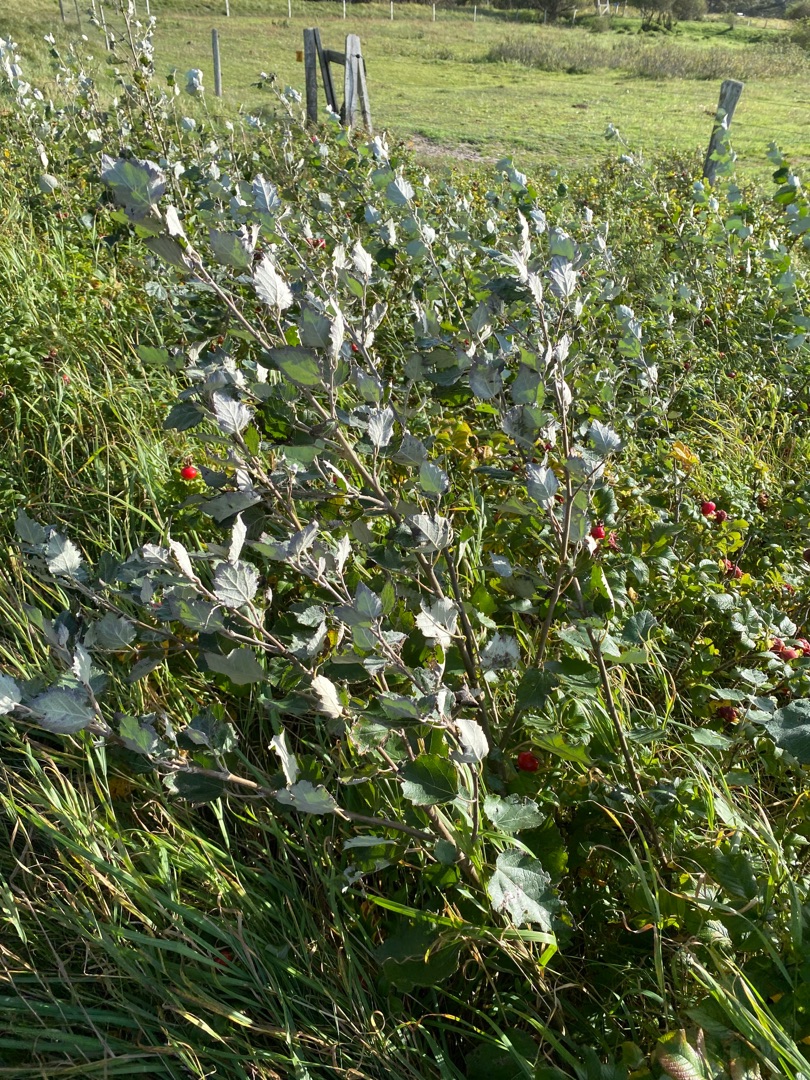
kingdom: Plantae
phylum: Tracheophyta
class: Magnoliopsida
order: Malpighiales
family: Salicaceae
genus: Populus
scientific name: Populus canescens
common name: Grå-poppel
